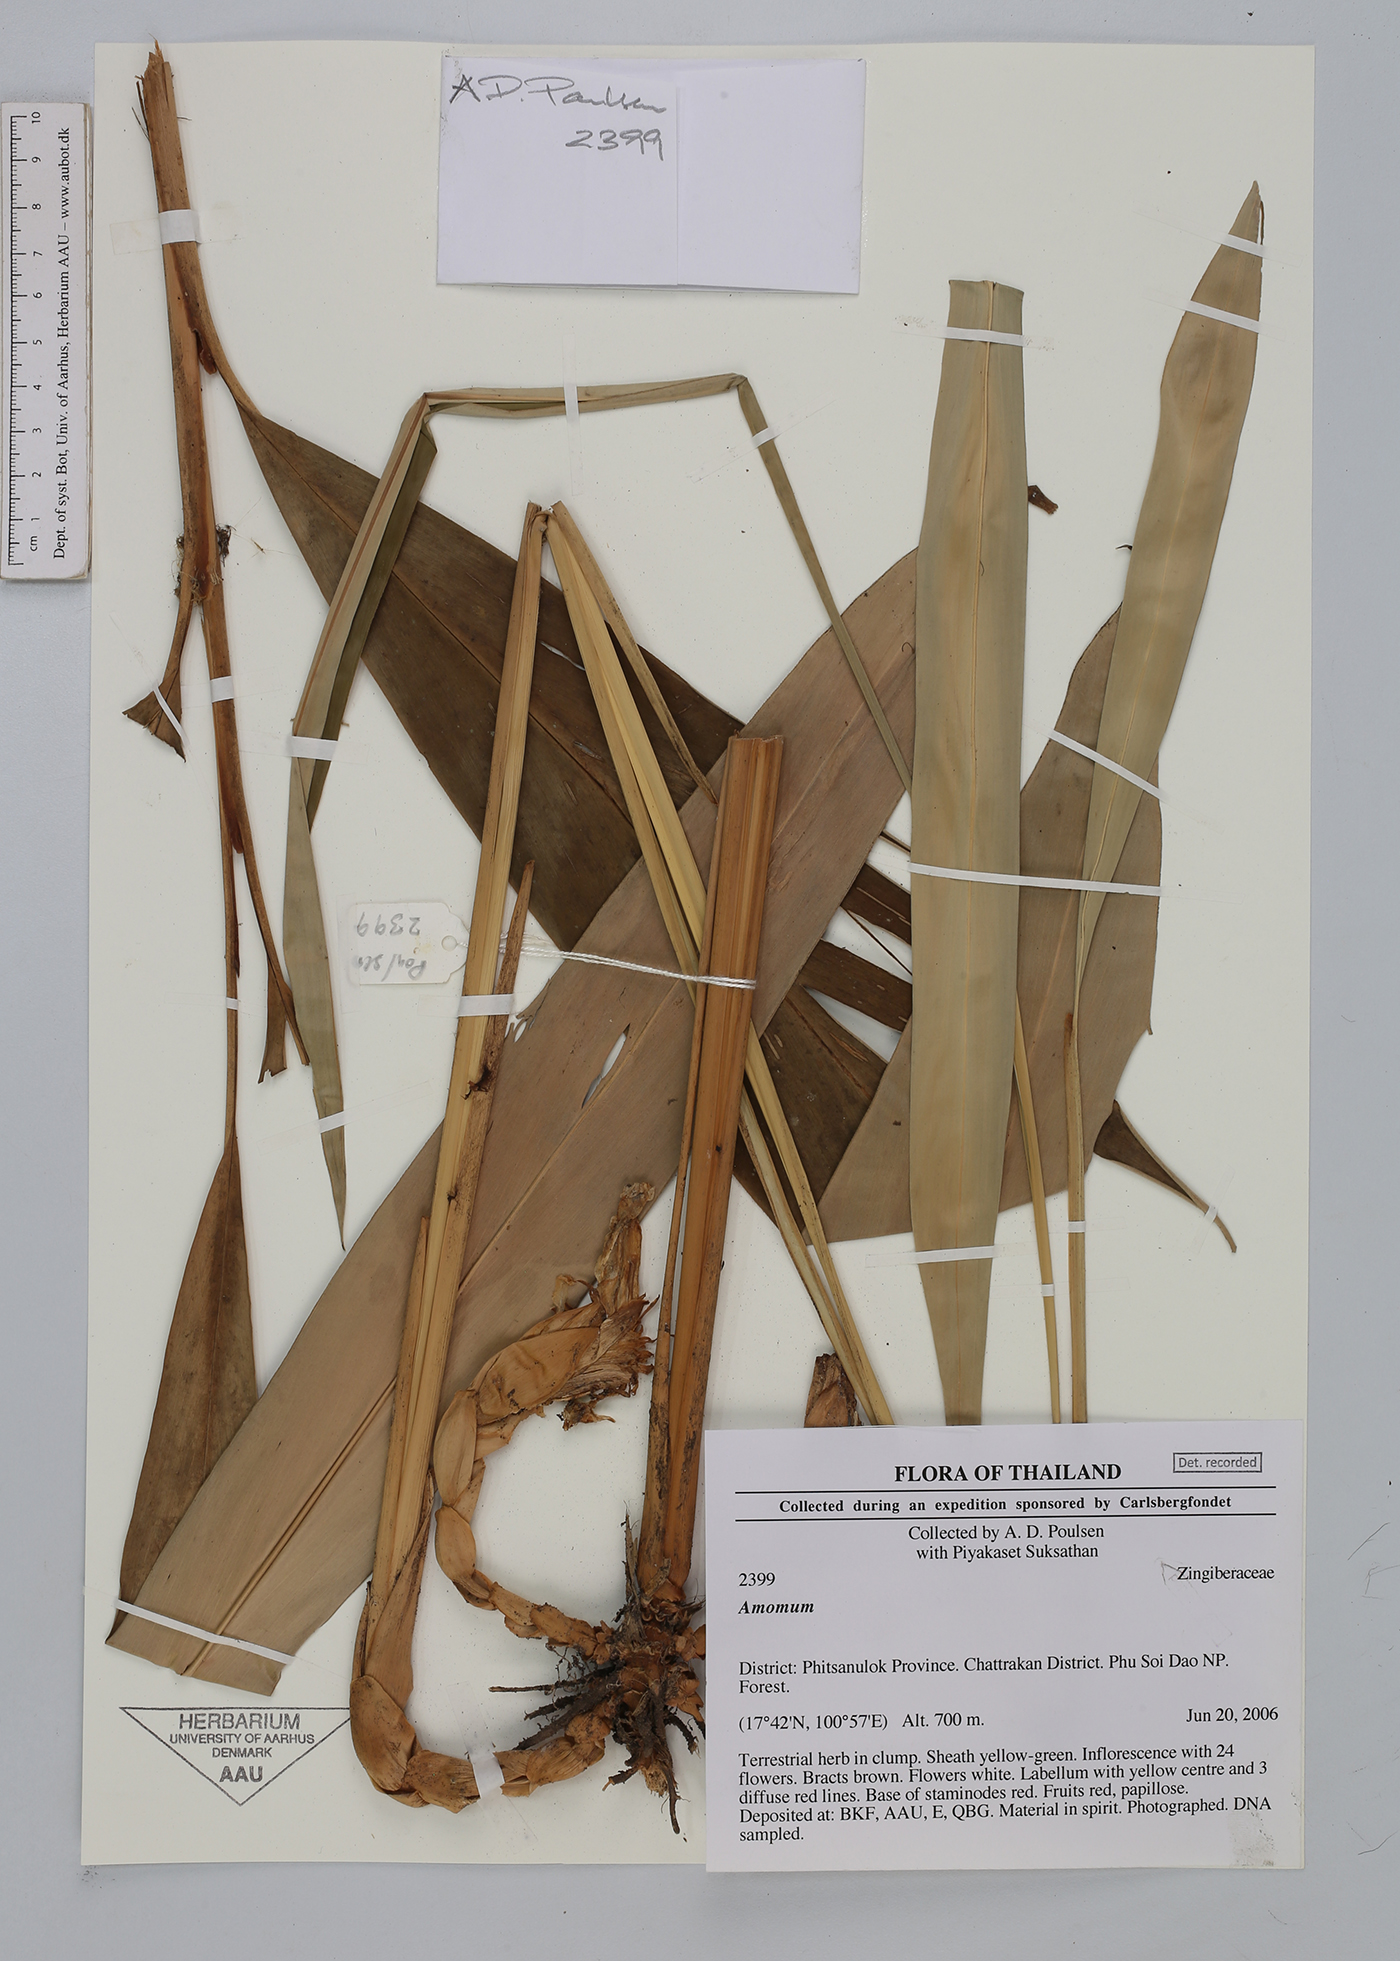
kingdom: Plantae
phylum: Tracheophyta
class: Liliopsida
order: Zingiberales
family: Zingiberaceae
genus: Amomum
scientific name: Amomum
